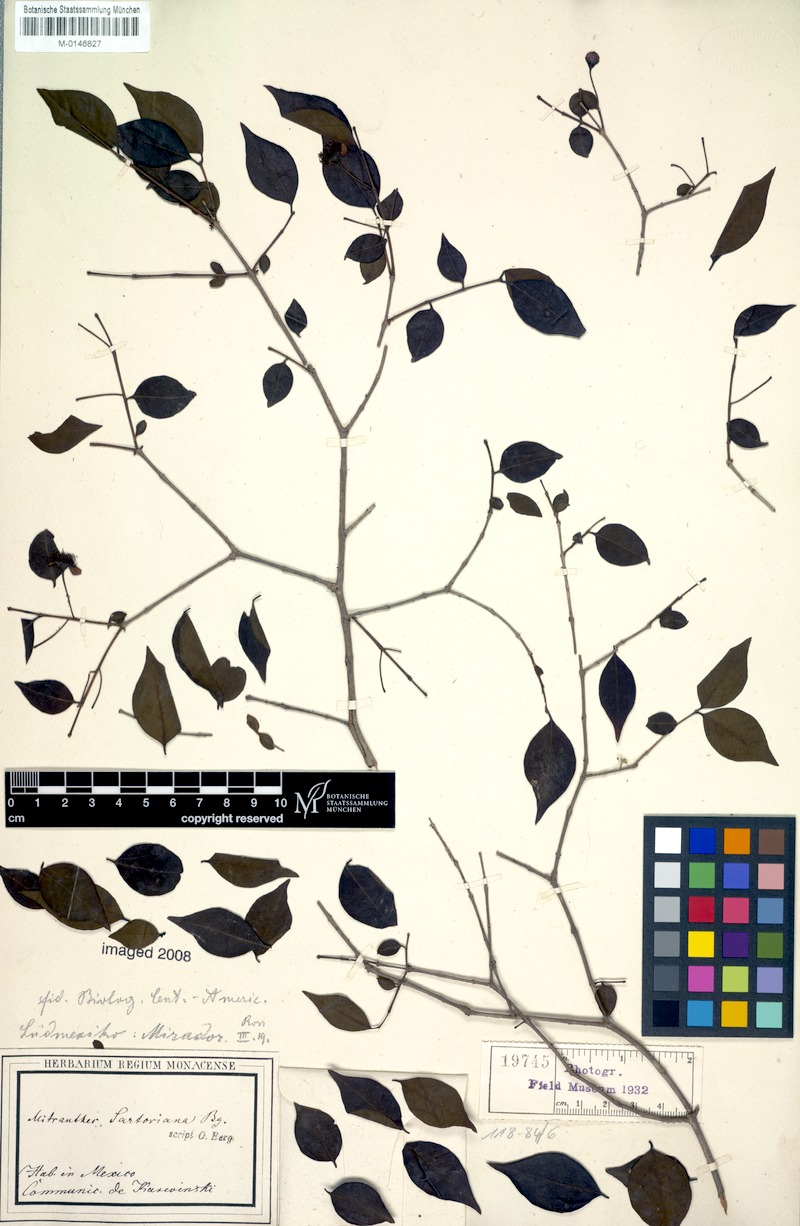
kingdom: Plantae
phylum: Tracheophyta
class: Magnoliopsida
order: Myrtales
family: Myrtaceae
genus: Psidium
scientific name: Psidium sartorianum
